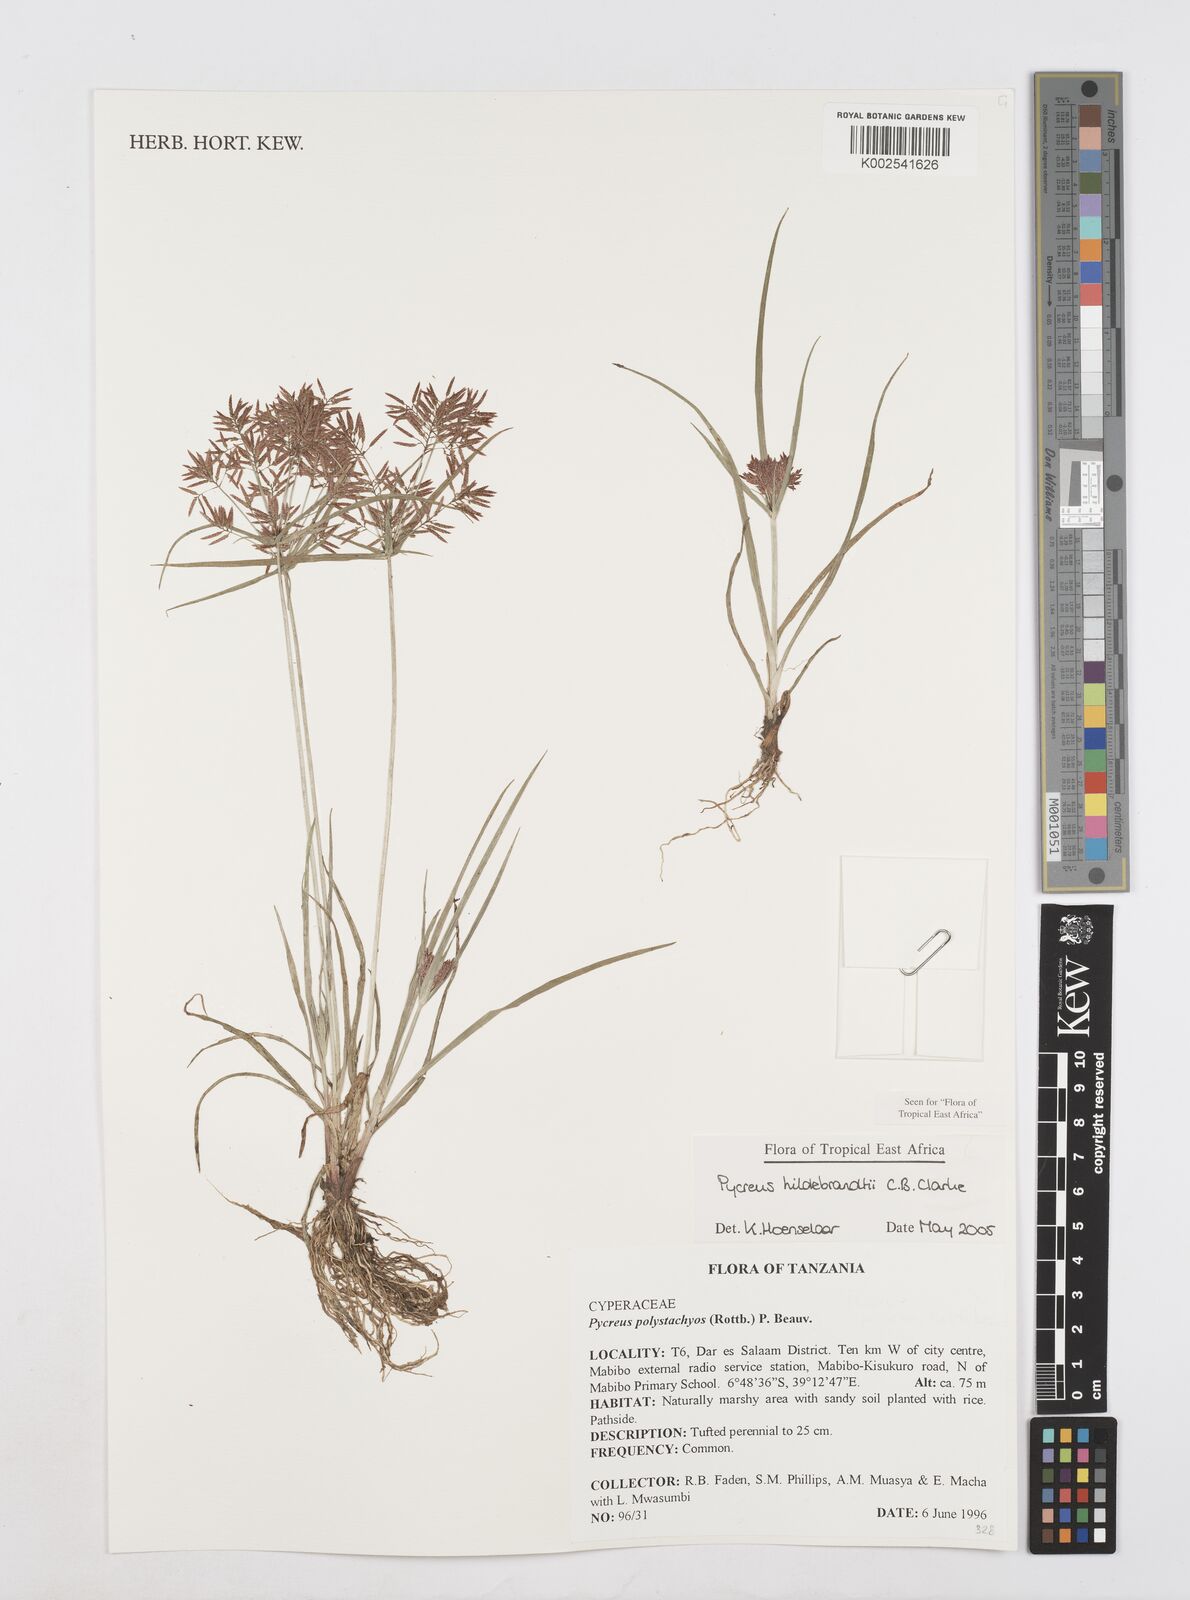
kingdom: Plantae
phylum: Tracheophyta
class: Liliopsida
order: Poales
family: Cyperaceae
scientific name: Cyperaceae
